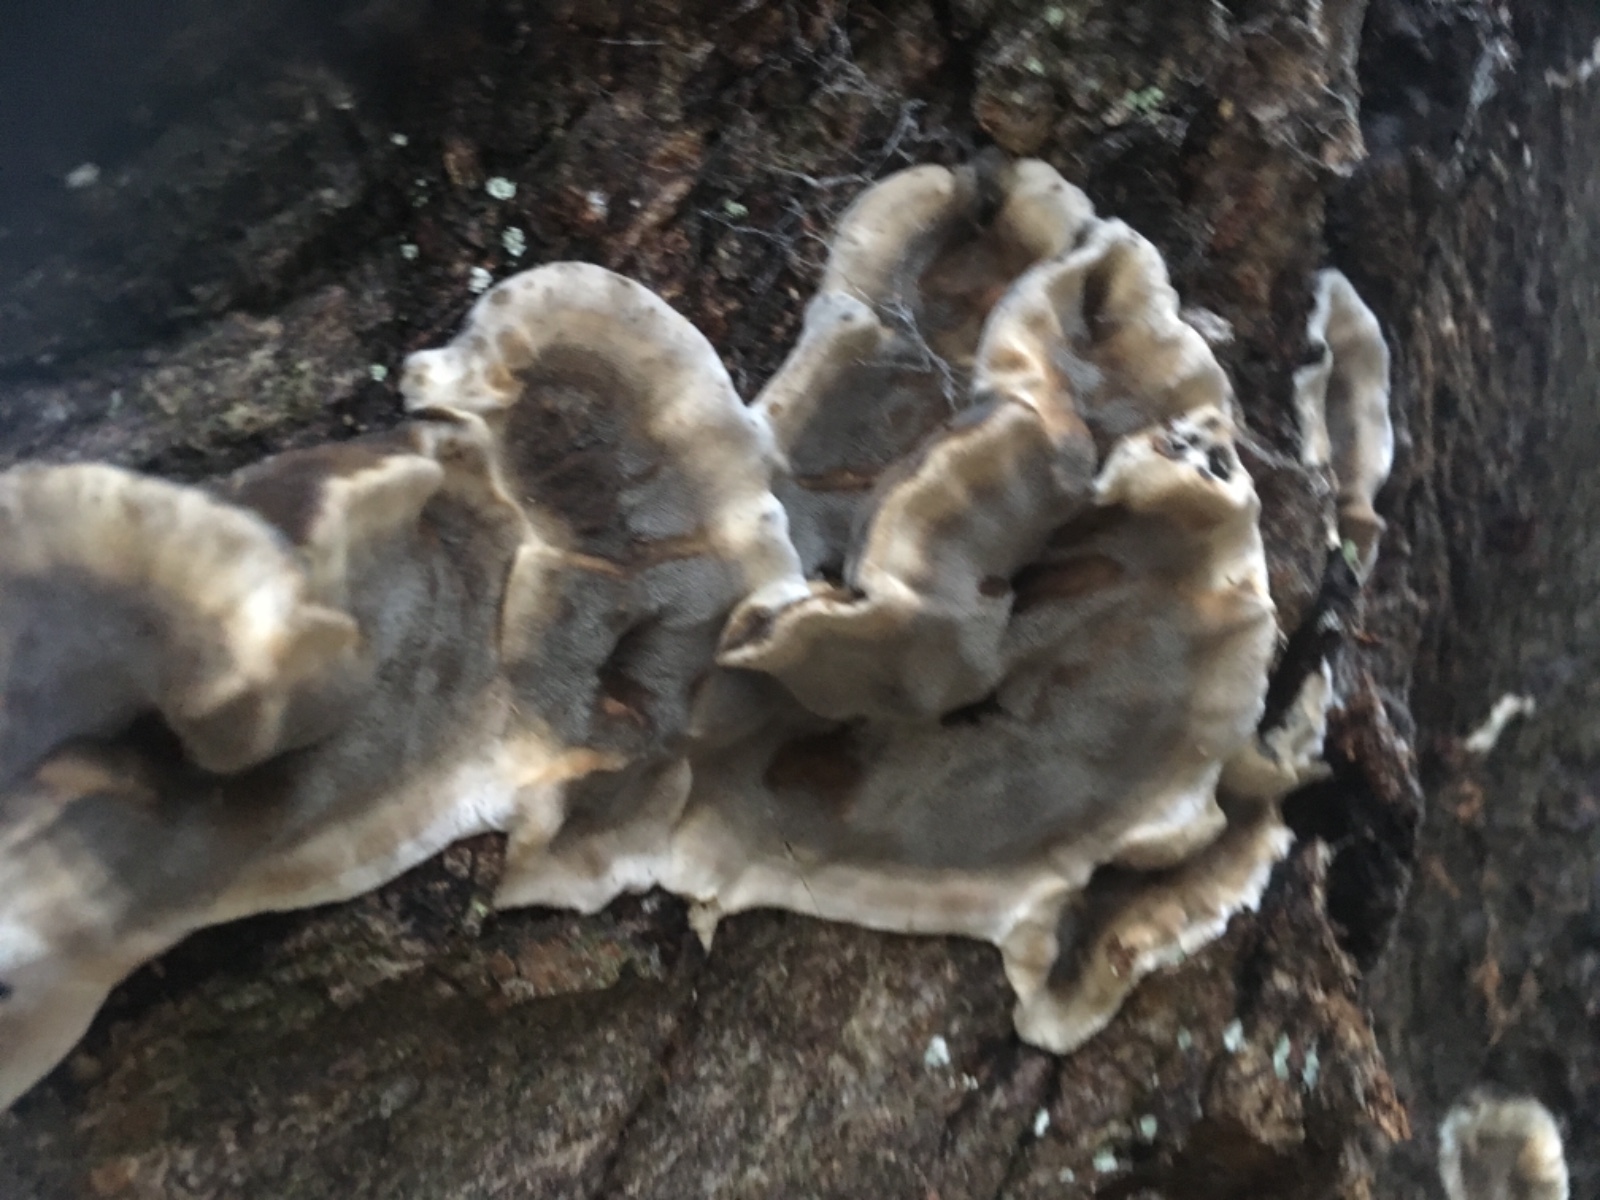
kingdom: Fungi
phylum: Basidiomycota
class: Agaricomycetes
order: Polyporales
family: Phanerochaetaceae
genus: Bjerkandera
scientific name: Bjerkandera adusta
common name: sveden sodporesvamp
